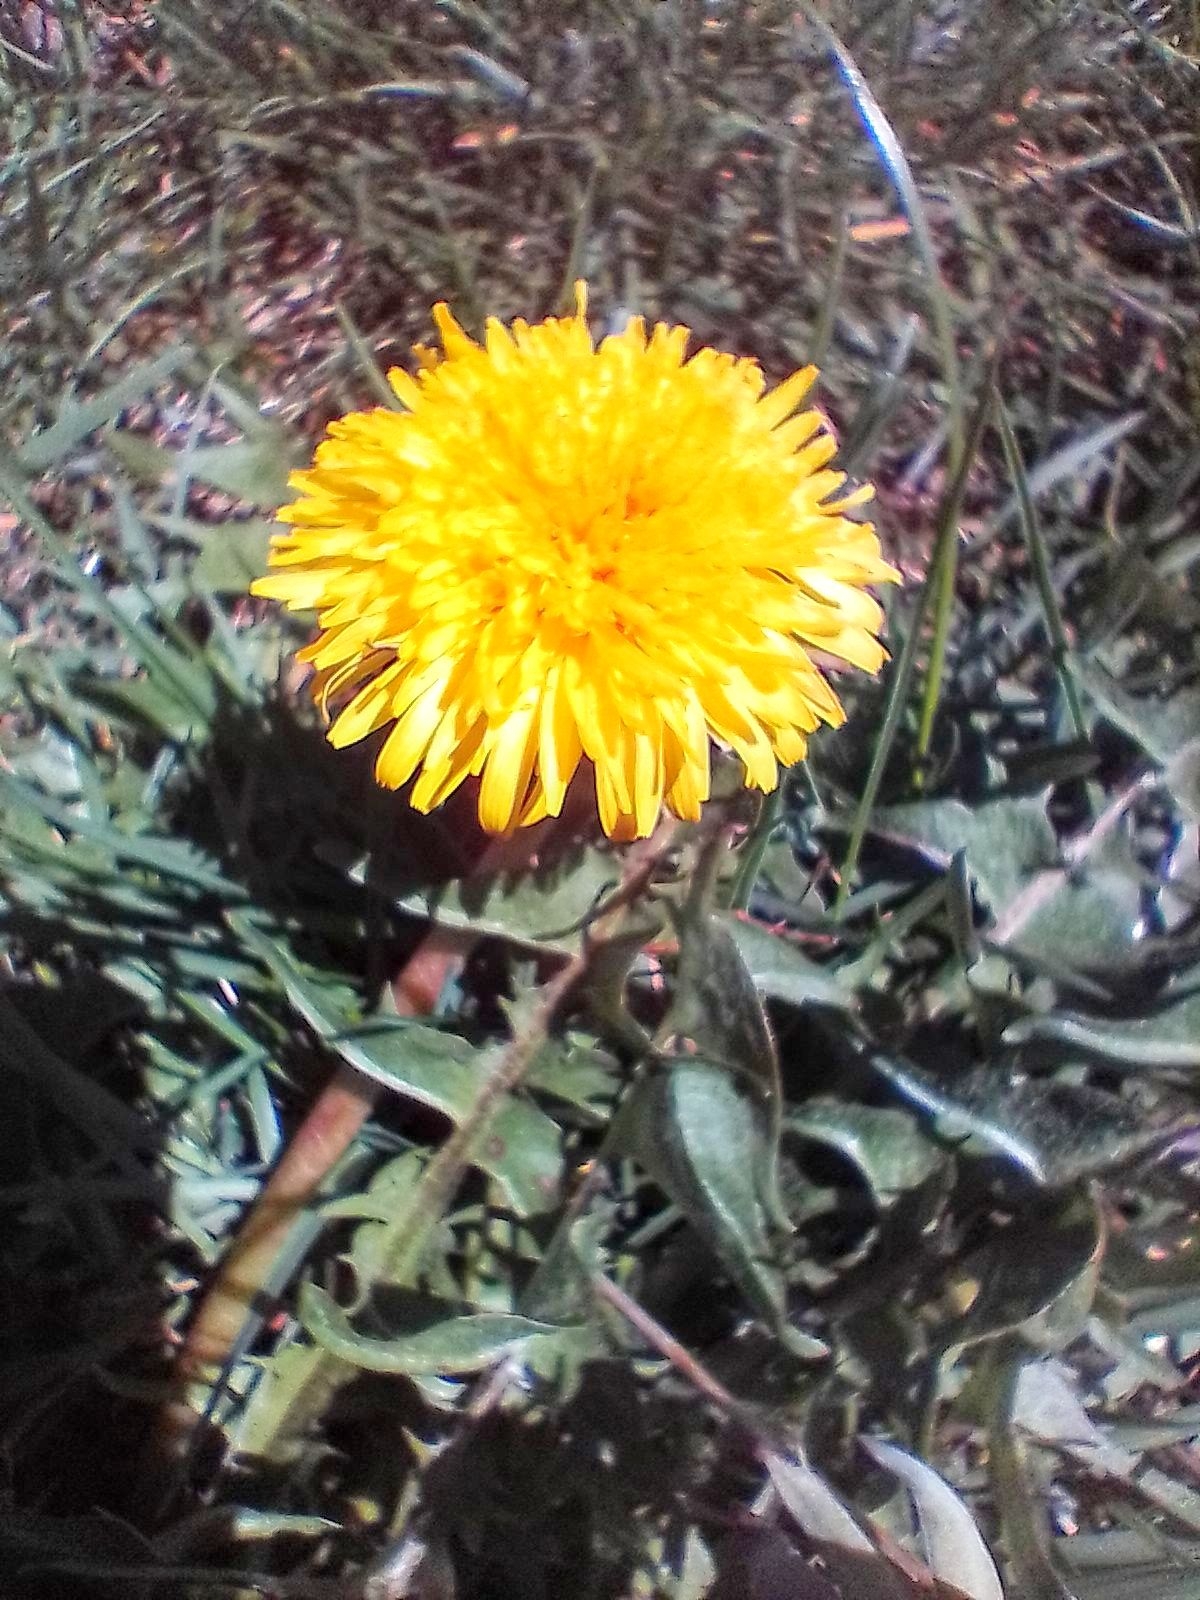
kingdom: Plantae
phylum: Tracheophyta
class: Magnoliopsida
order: Asterales
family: Asteraceae
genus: Taraxacum
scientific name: Taraxacum
